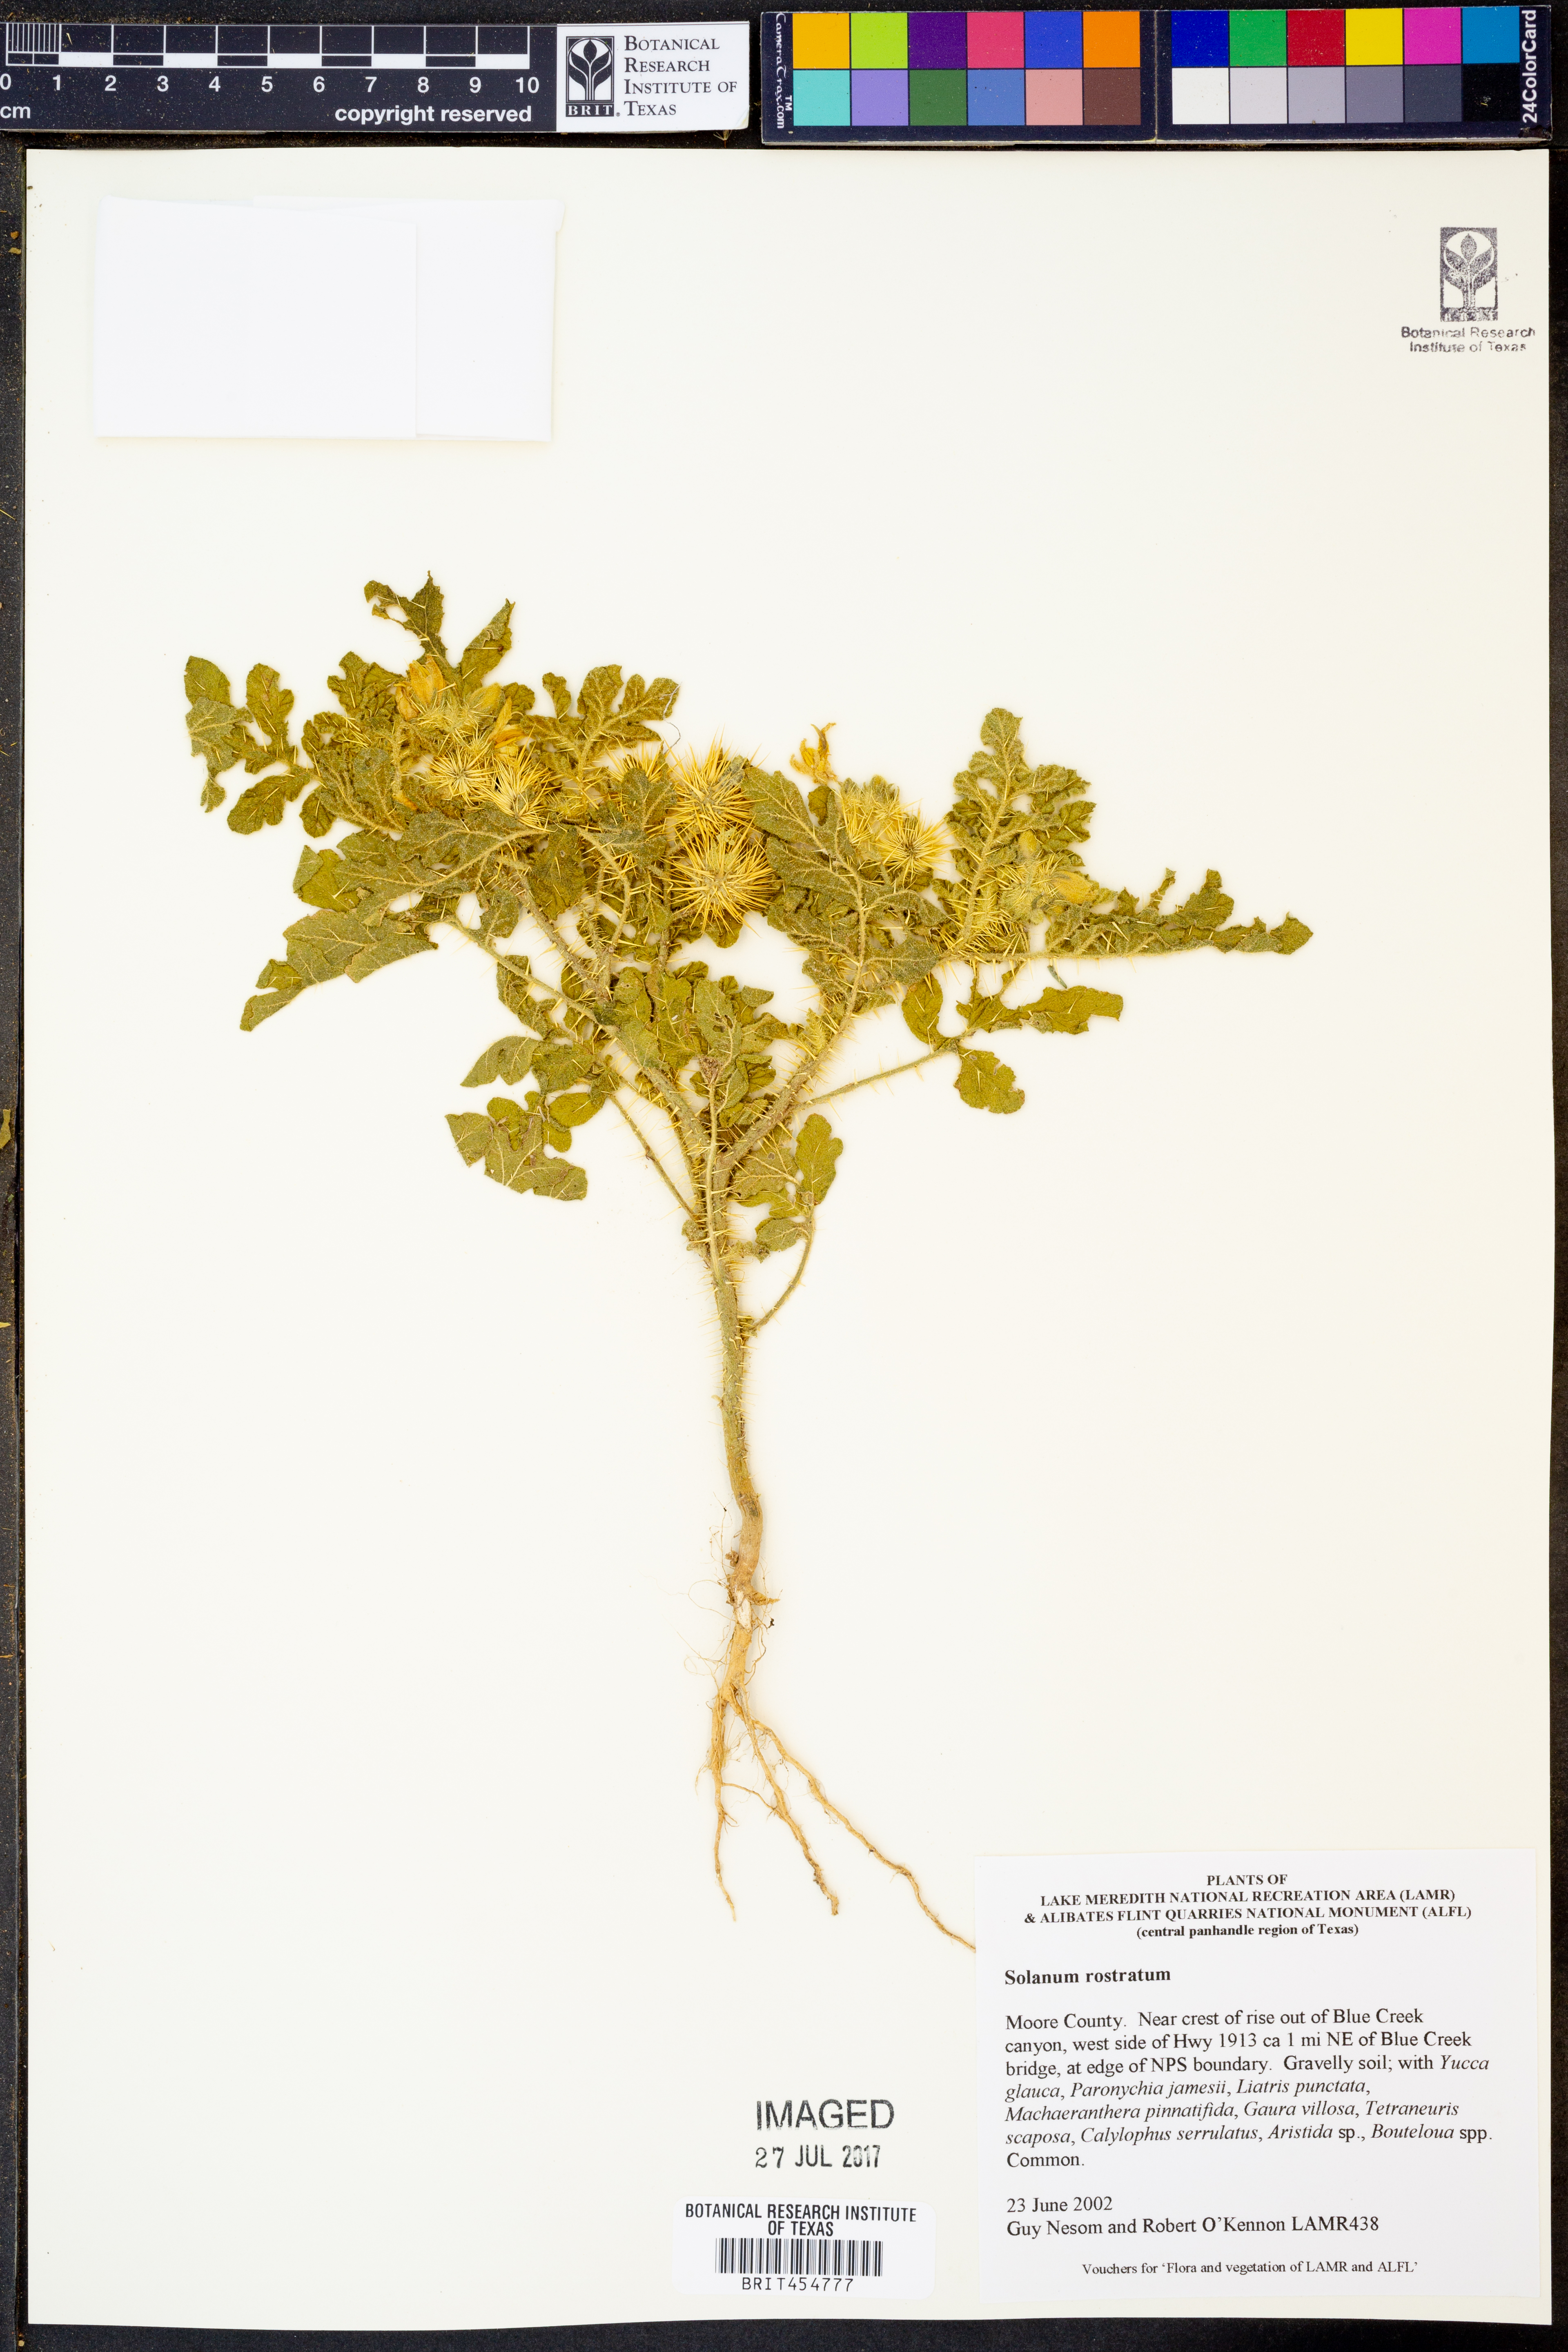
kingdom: Plantae
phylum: Tracheophyta
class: Magnoliopsida
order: Solanales
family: Solanaceae
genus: Solanum
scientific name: Solanum angustifolium
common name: Buffalobur nightshade
